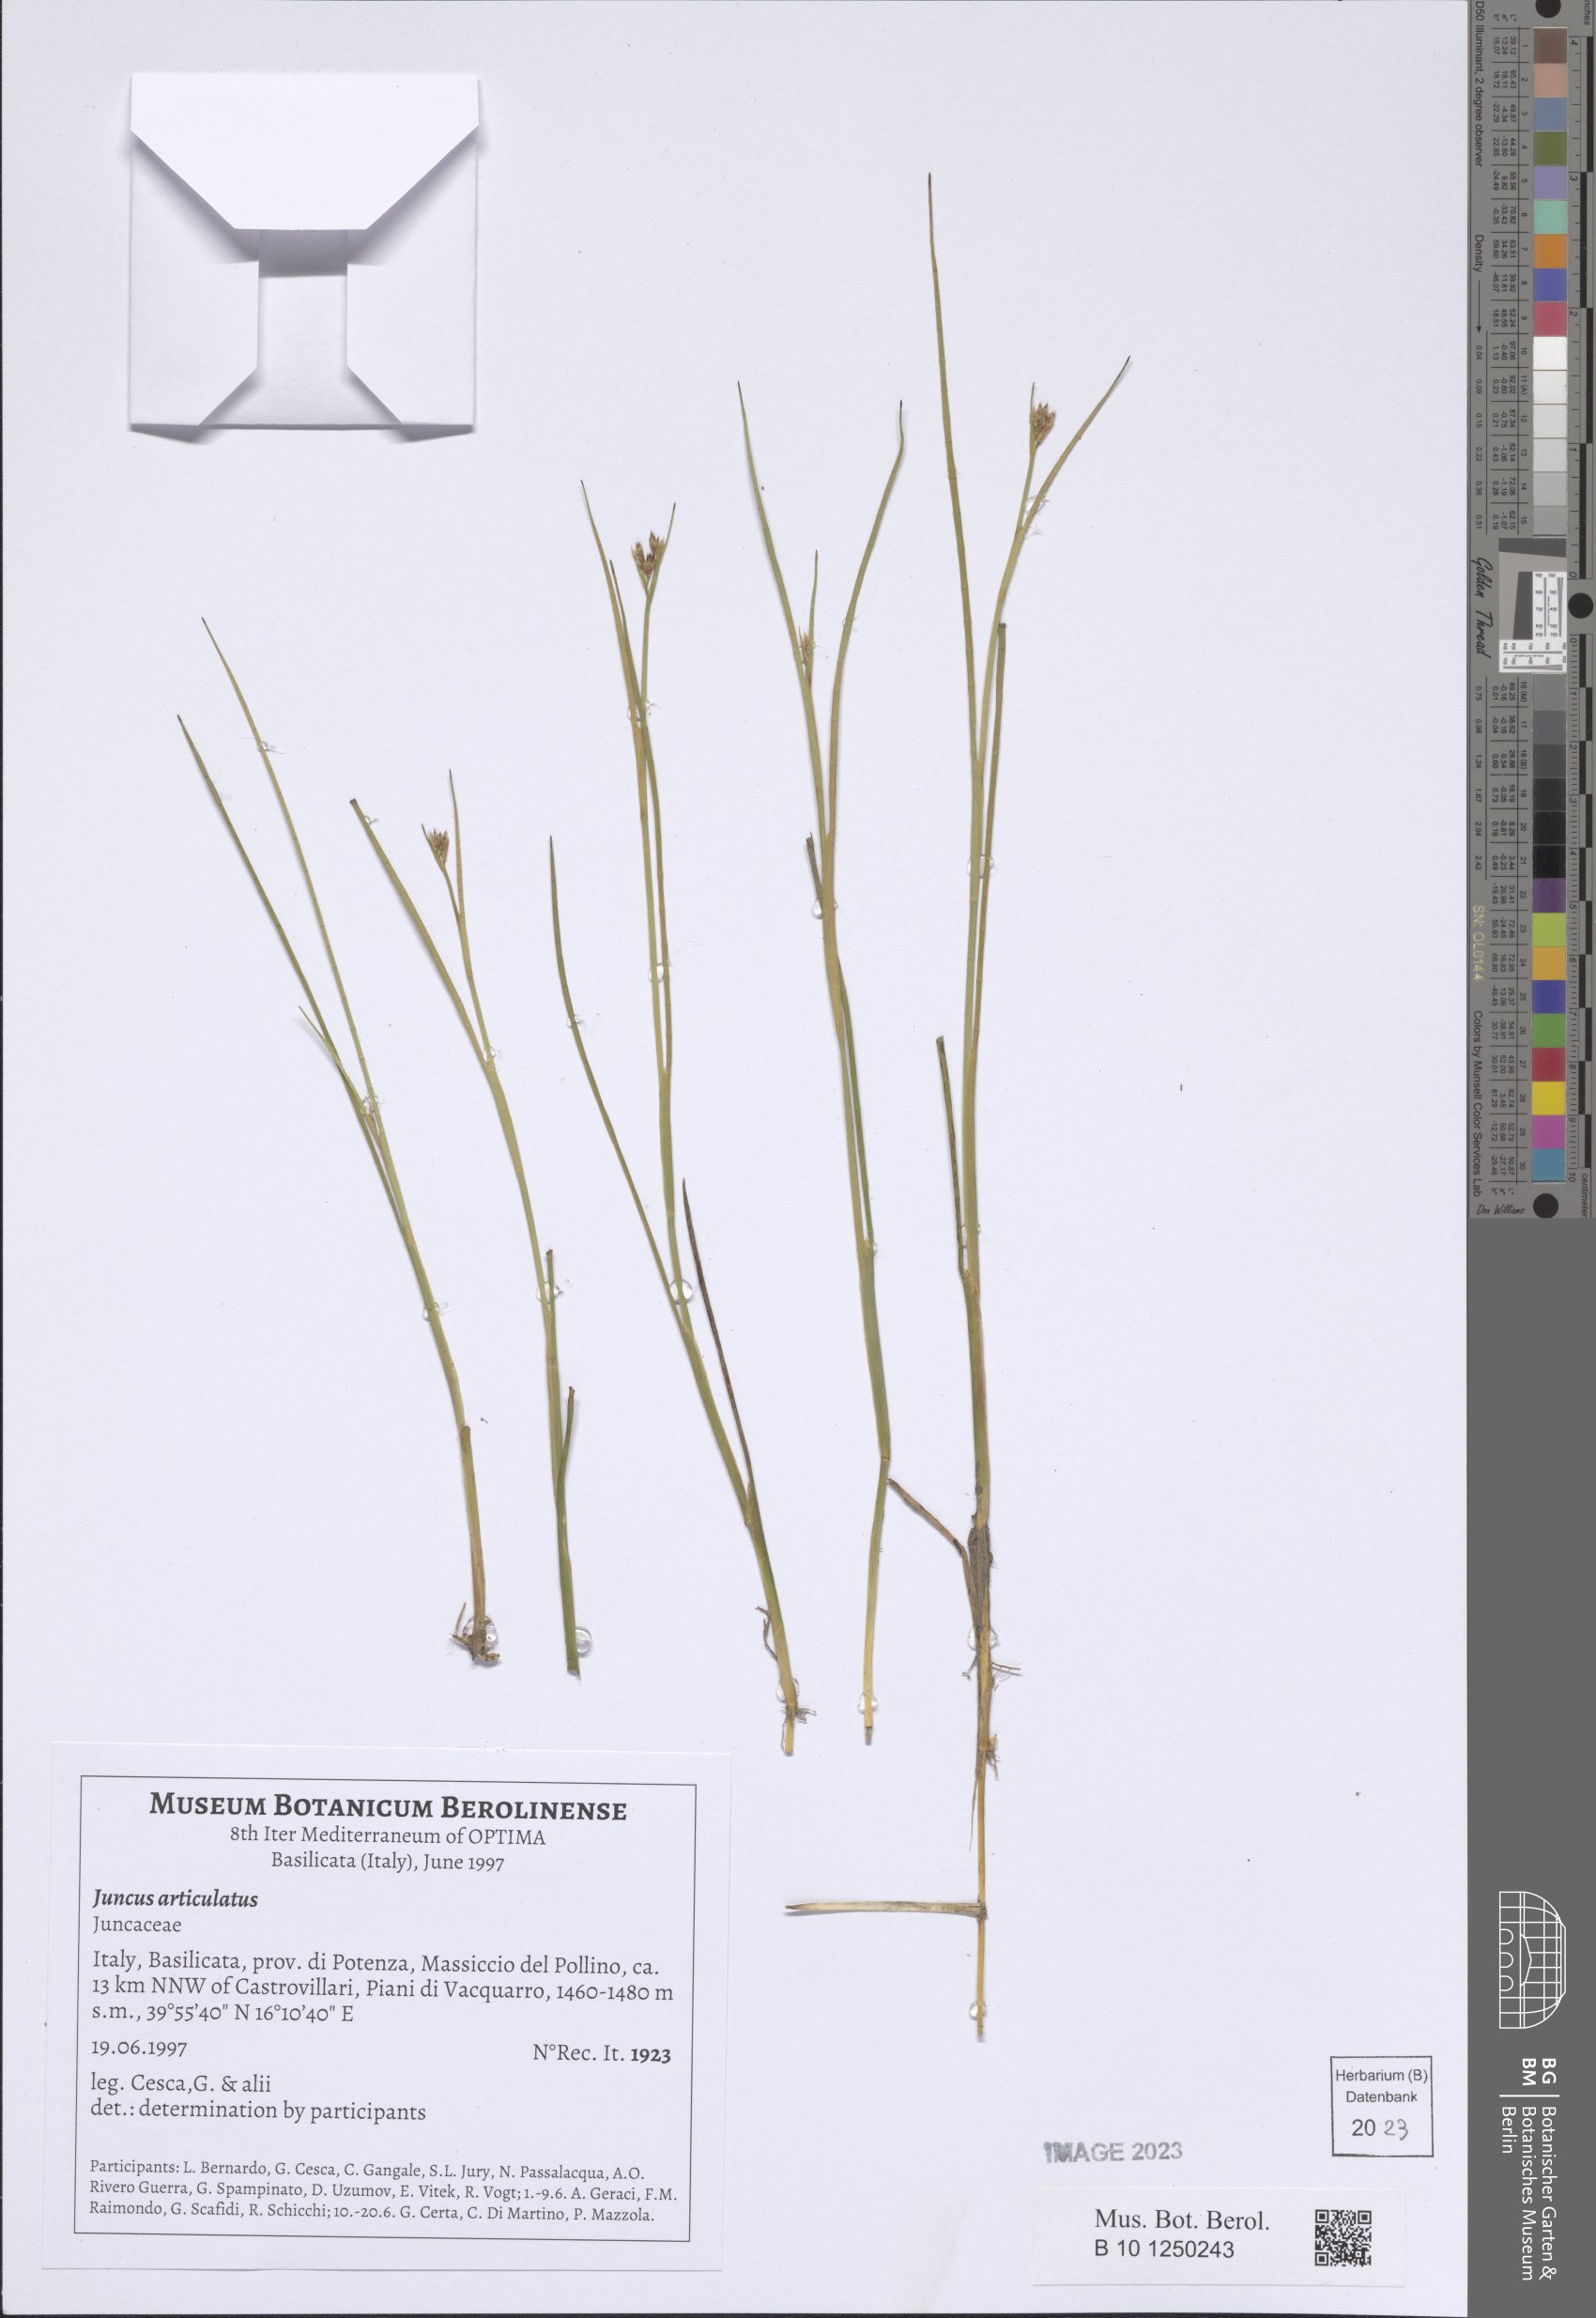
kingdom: Plantae
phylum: Tracheophyta
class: Liliopsida
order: Poales
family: Juncaceae
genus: Juncus
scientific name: Juncus articulatus
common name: Jointed rush
